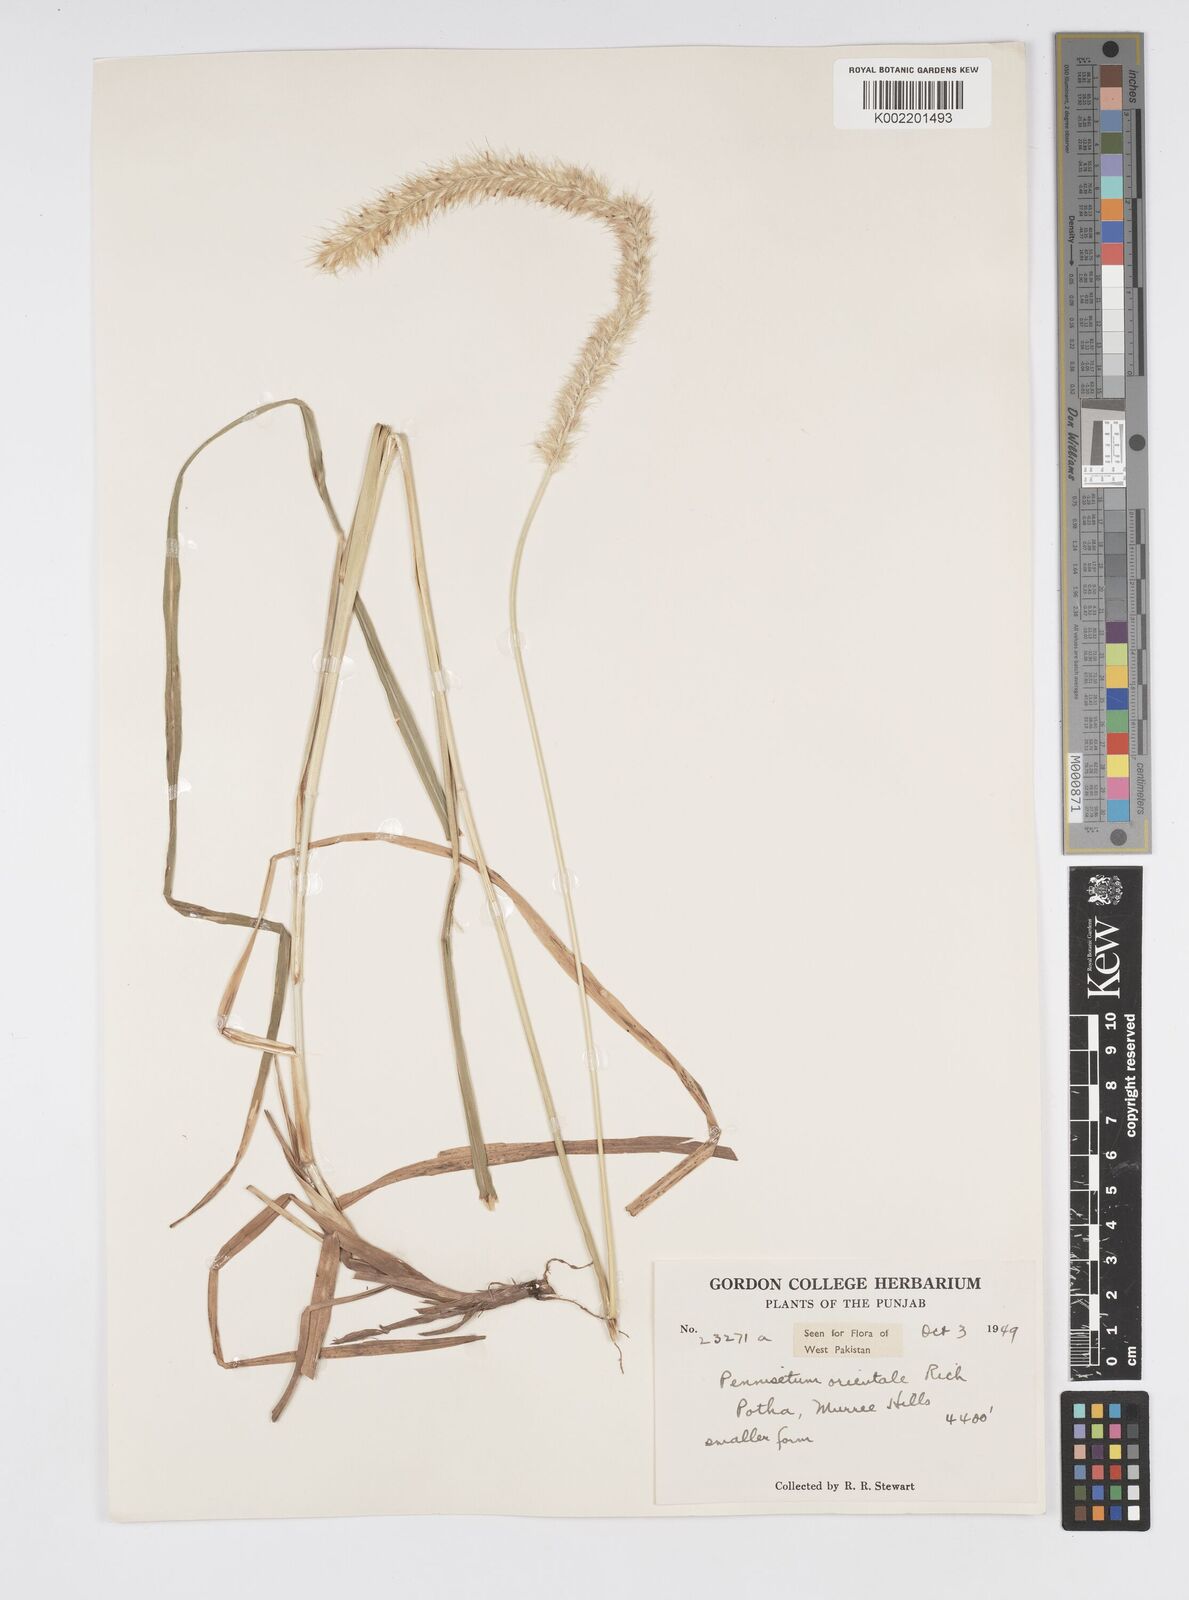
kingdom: Plantae
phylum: Tracheophyta
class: Liliopsida
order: Poales
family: Poaceae
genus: Cenchrus
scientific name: Cenchrus orientalis
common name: Oriental fountain grass
